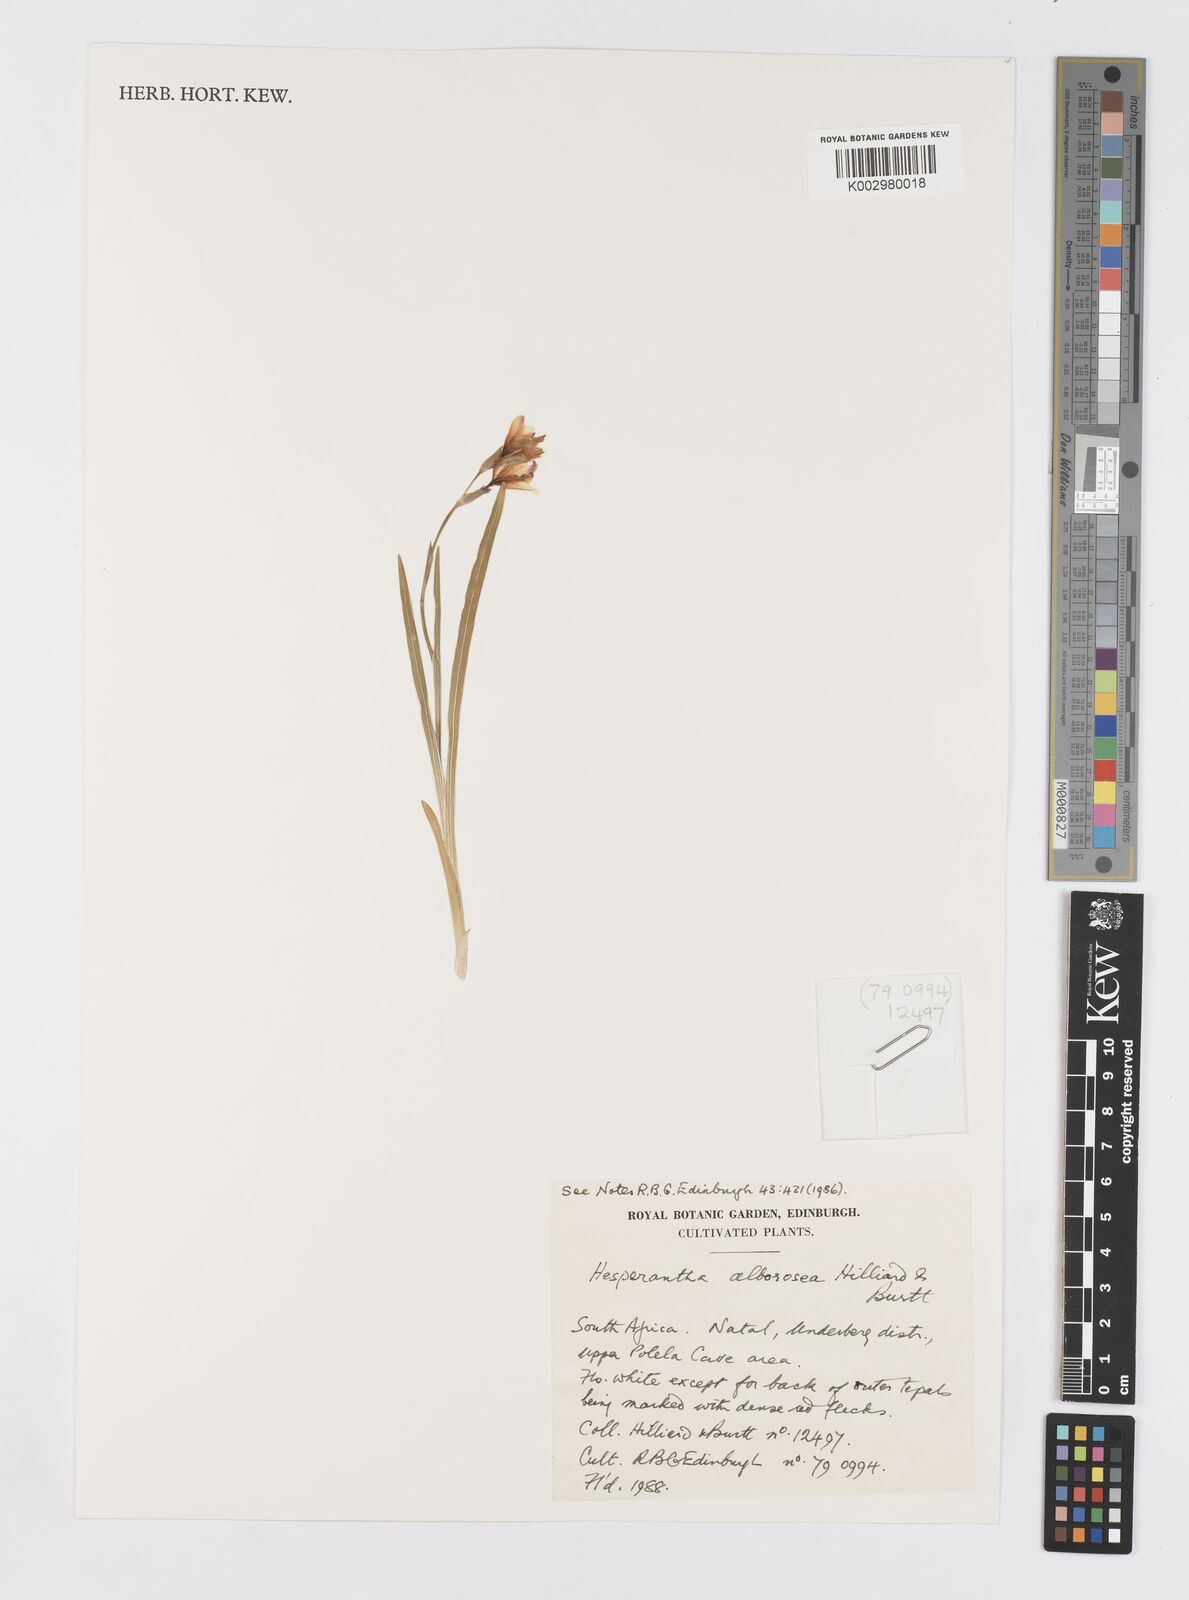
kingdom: Plantae
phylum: Tracheophyta
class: Liliopsida
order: Asparagales
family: Iridaceae
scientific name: Iridaceae
